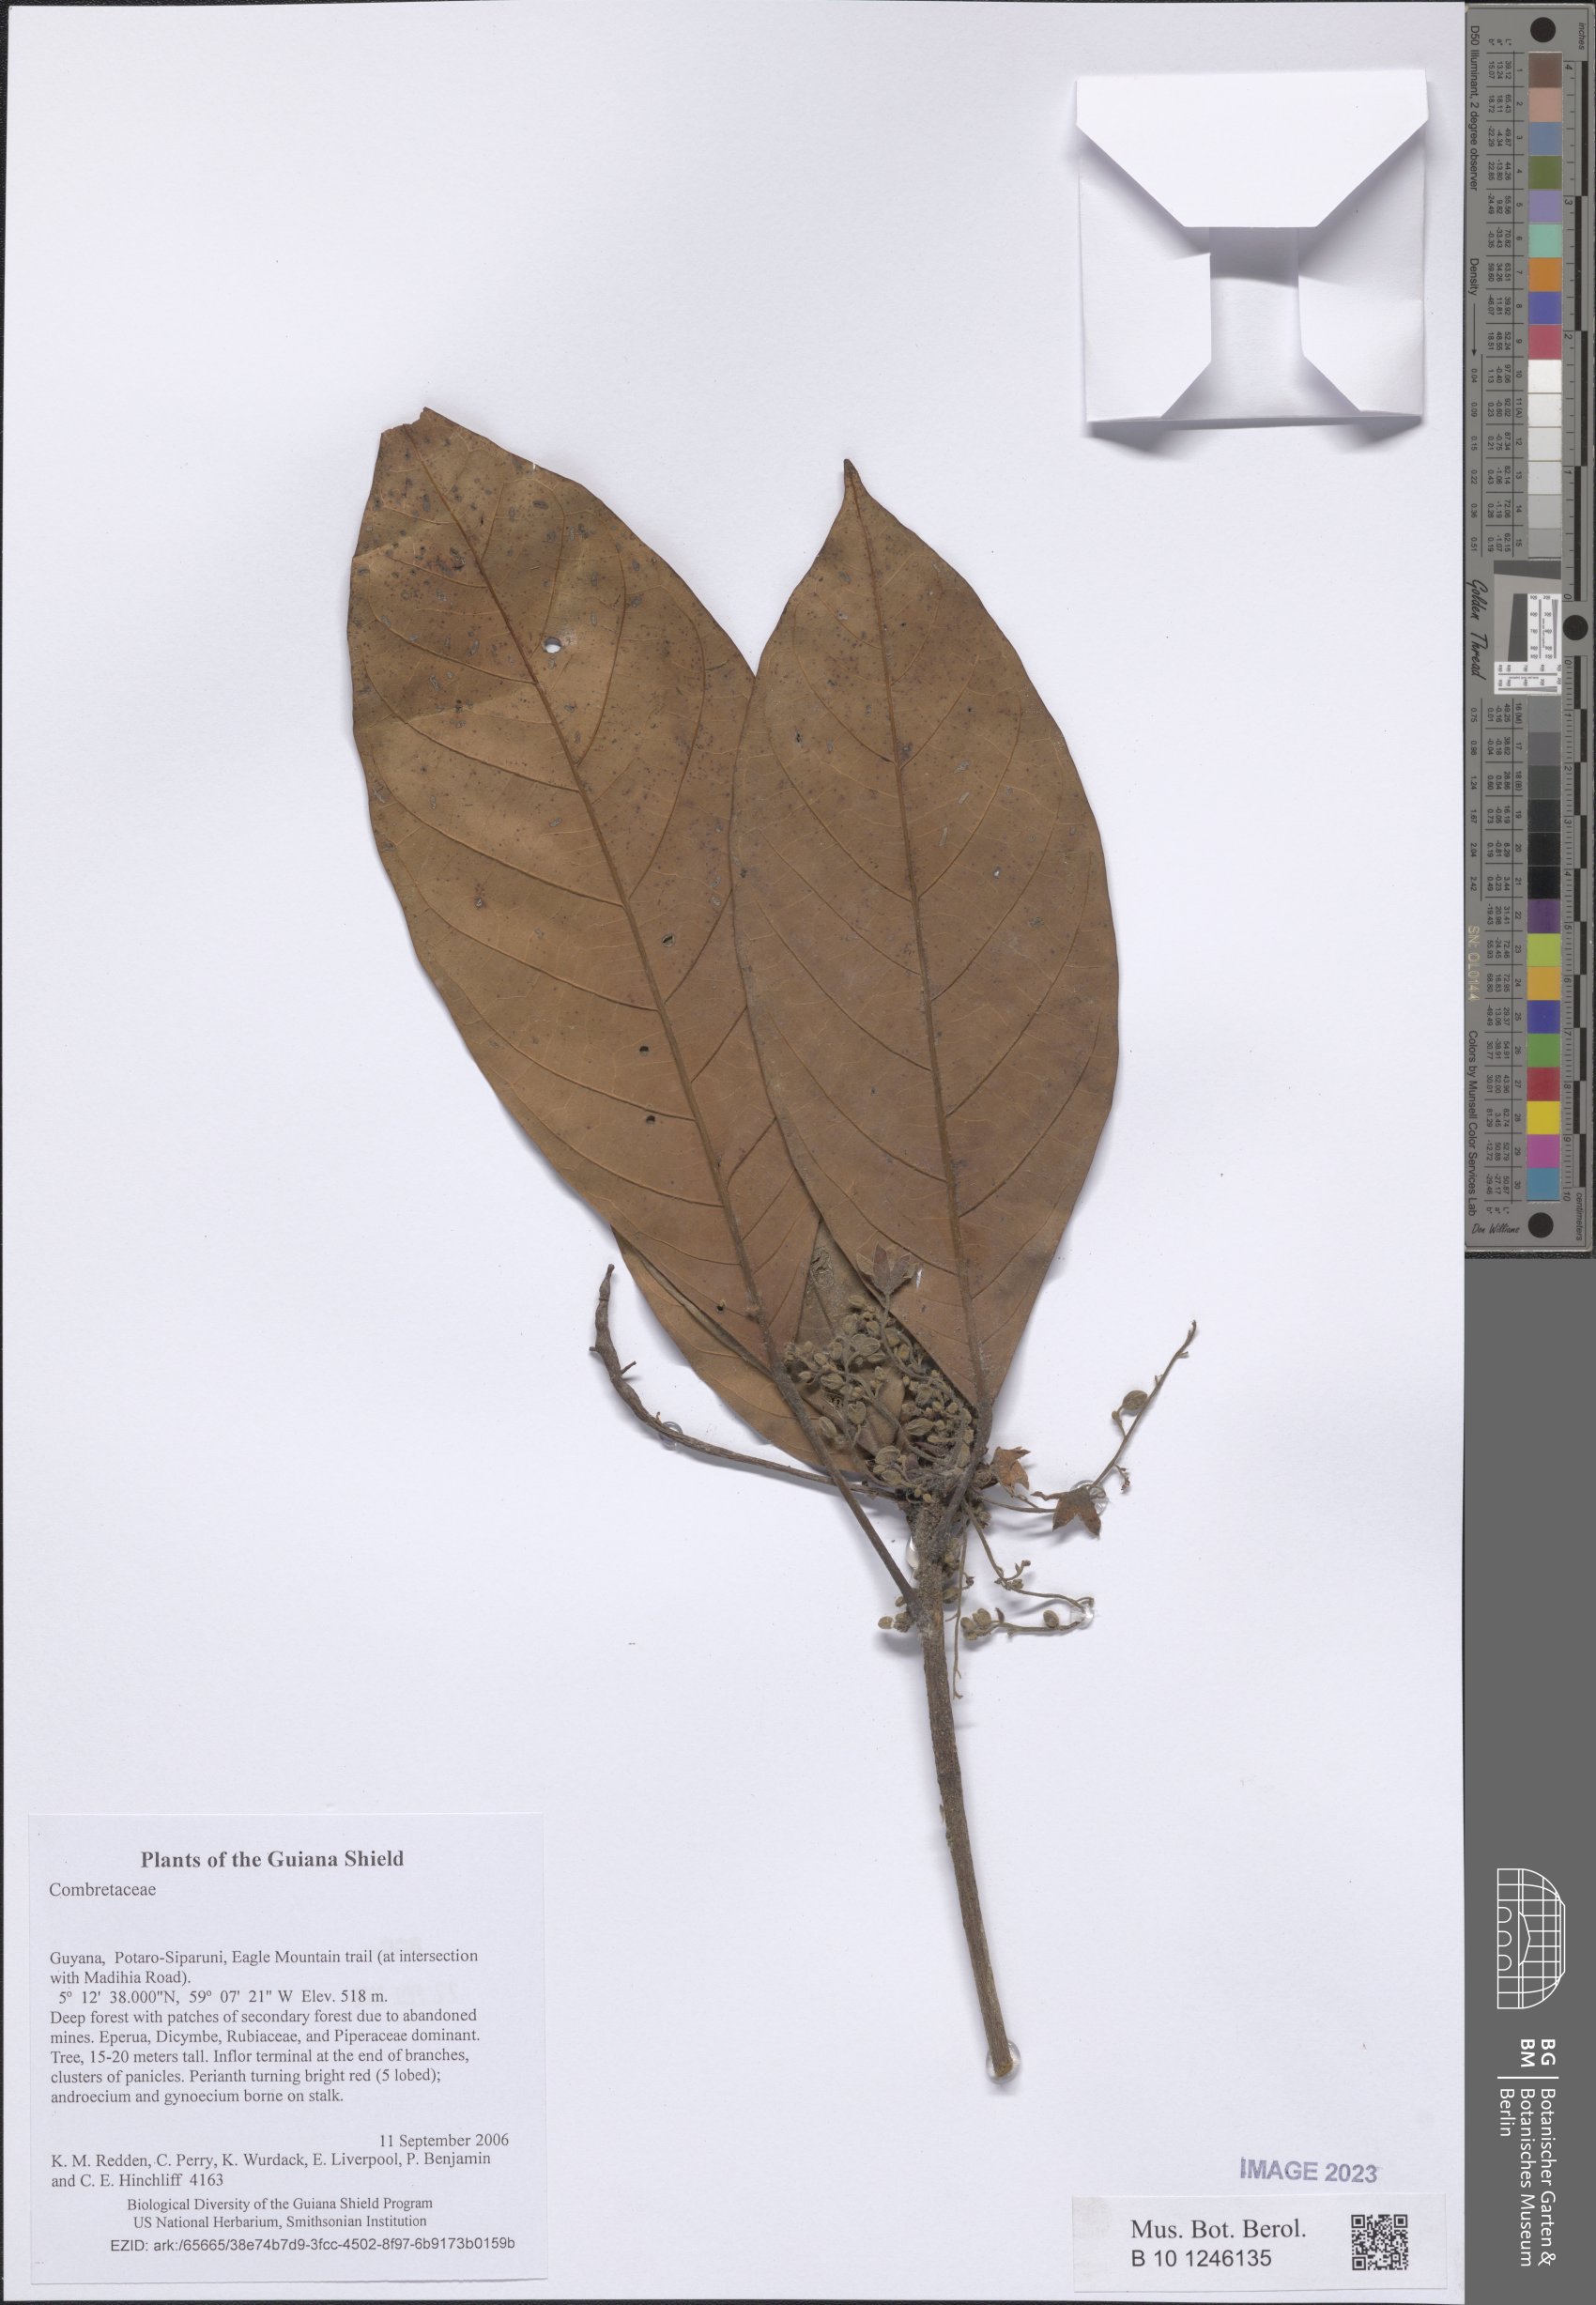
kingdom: Plantae
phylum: Tracheophyta
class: Magnoliopsida
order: Myrtales
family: Combretaceae
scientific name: Combretaceae
